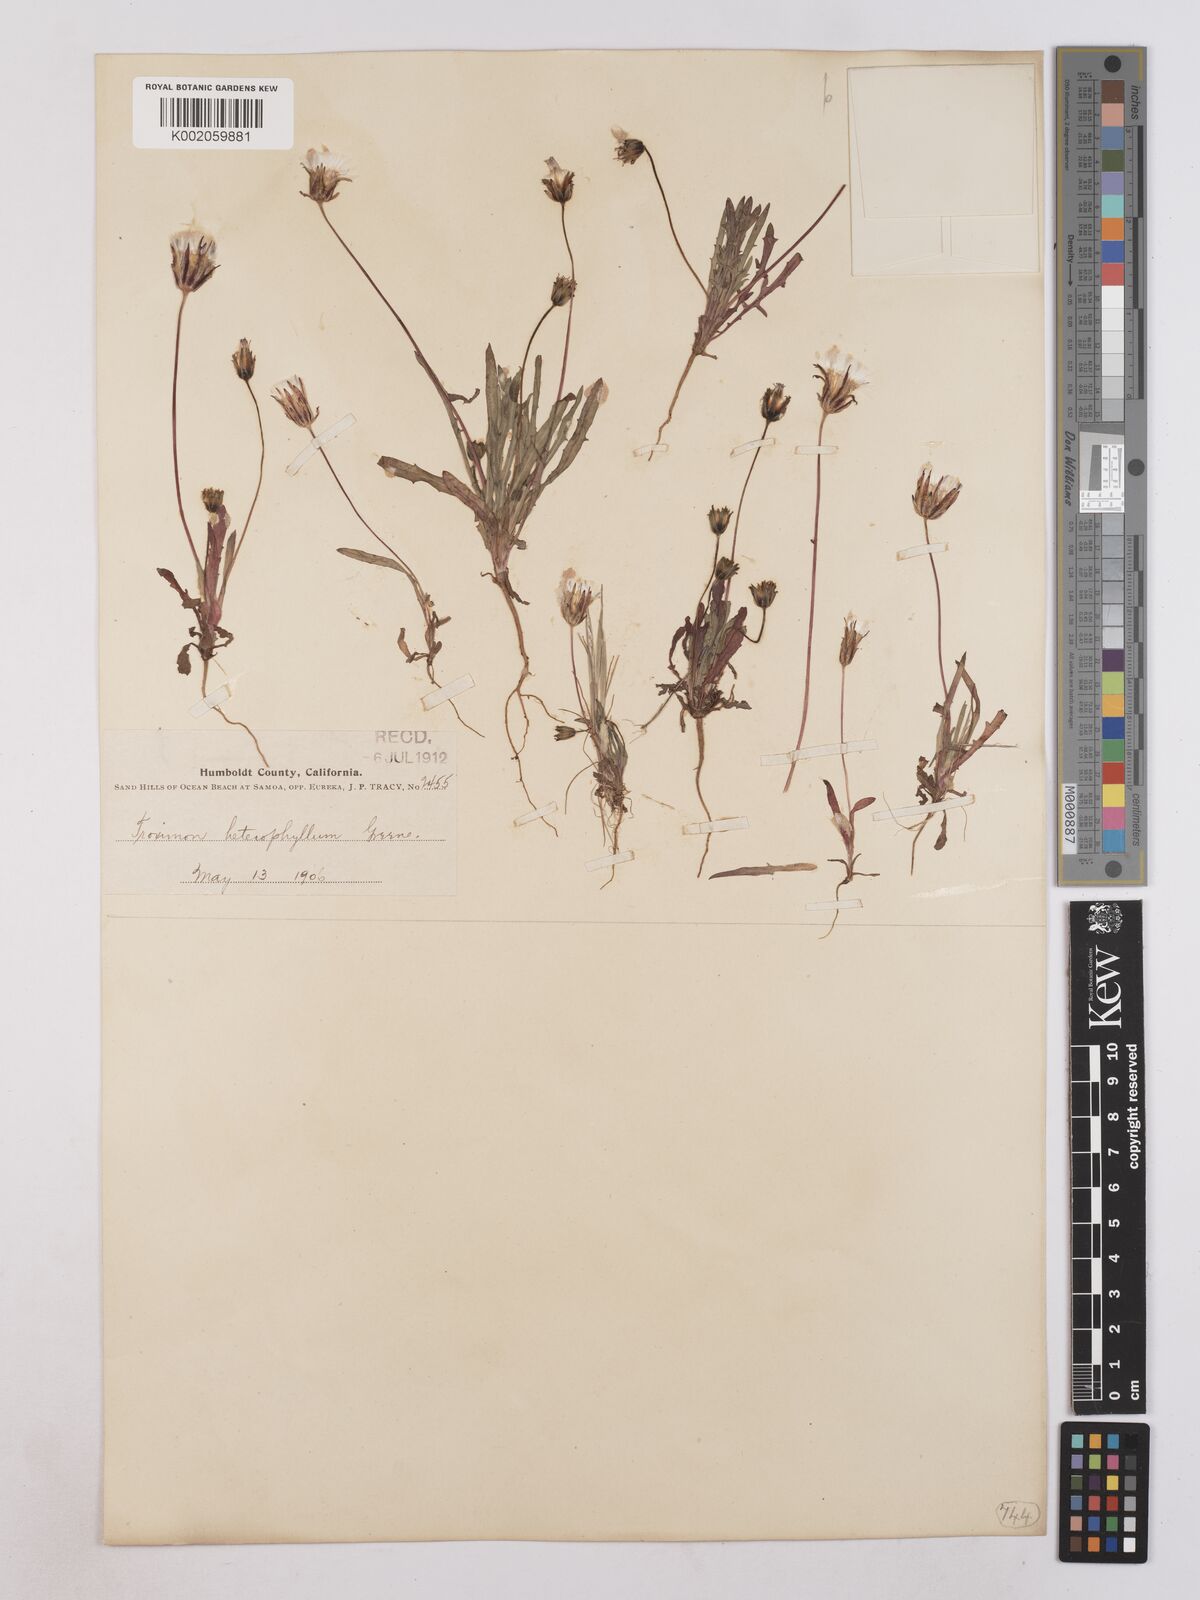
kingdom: Plantae
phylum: Tracheophyta
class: Magnoliopsida
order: Asterales
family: Asteraceae
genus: Agoseris
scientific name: Agoseris heterophylla
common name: Annual agoseris
